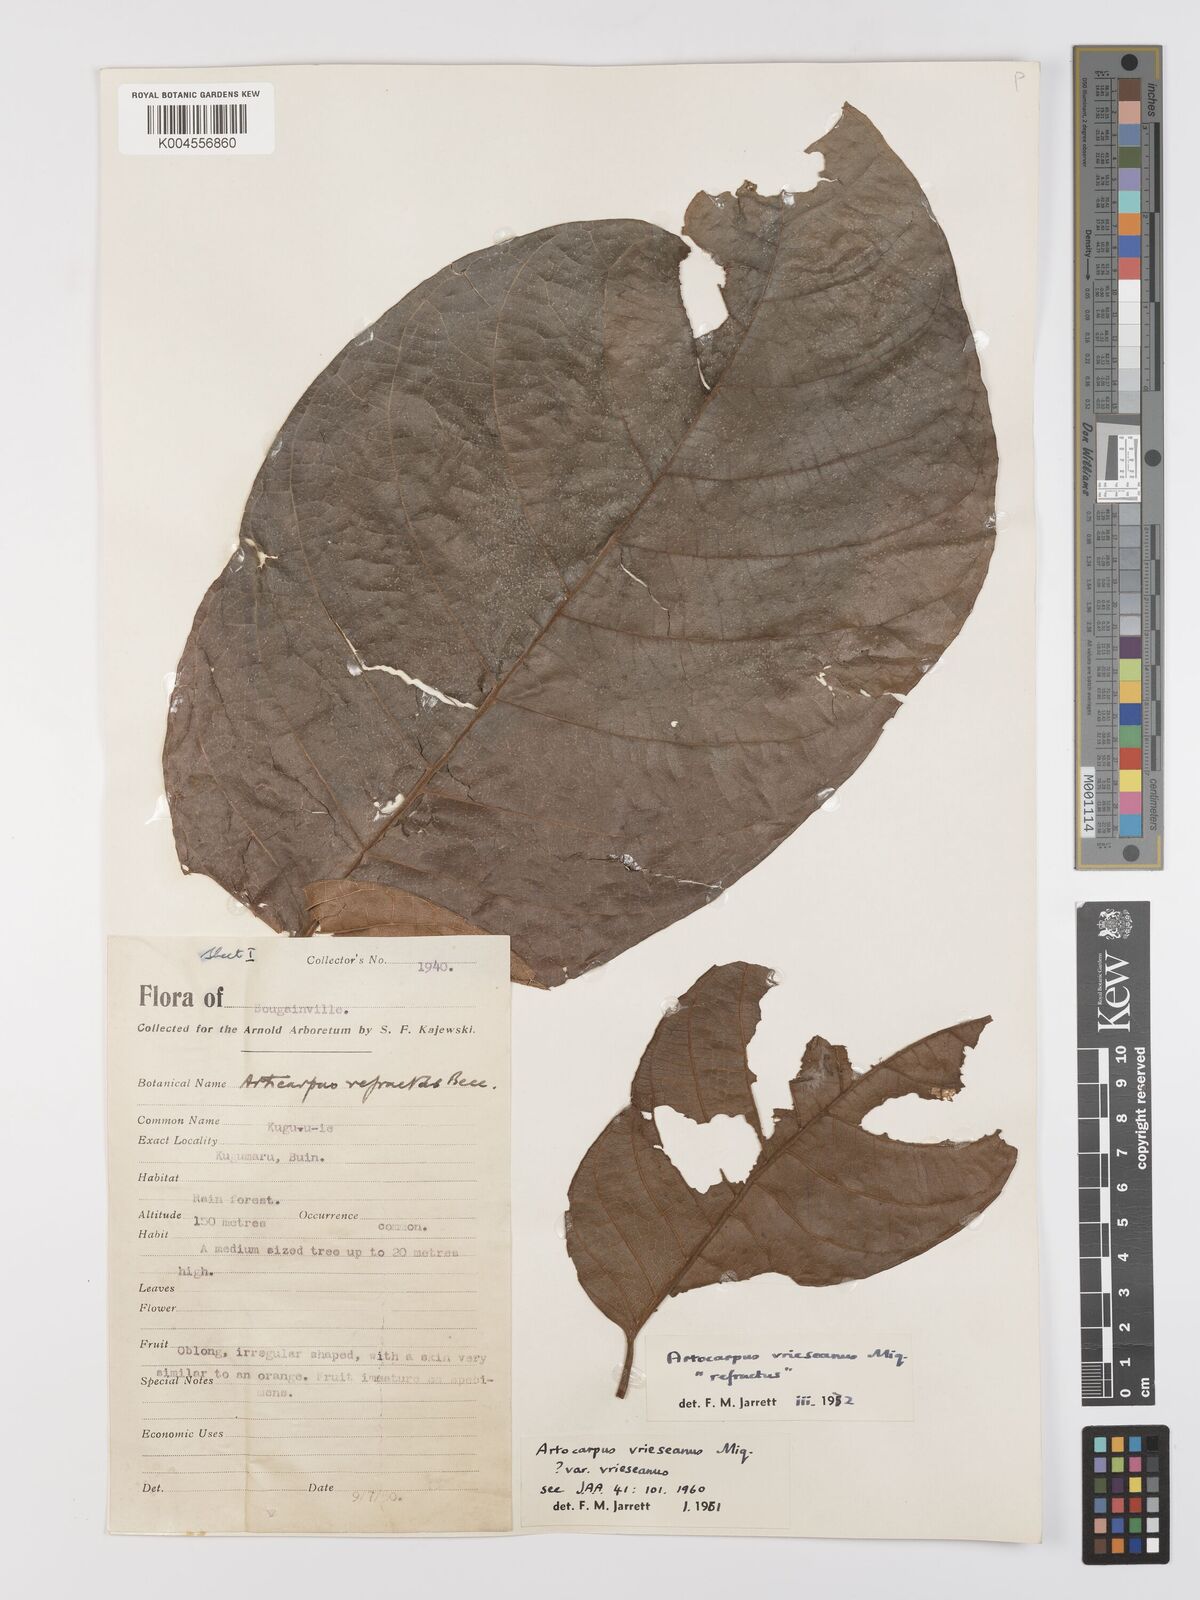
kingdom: Plantae
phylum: Tracheophyta
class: Magnoliopsida
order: Rosales
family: Moraceae
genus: Artocarpus
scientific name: Artocarpus vrieseanus
